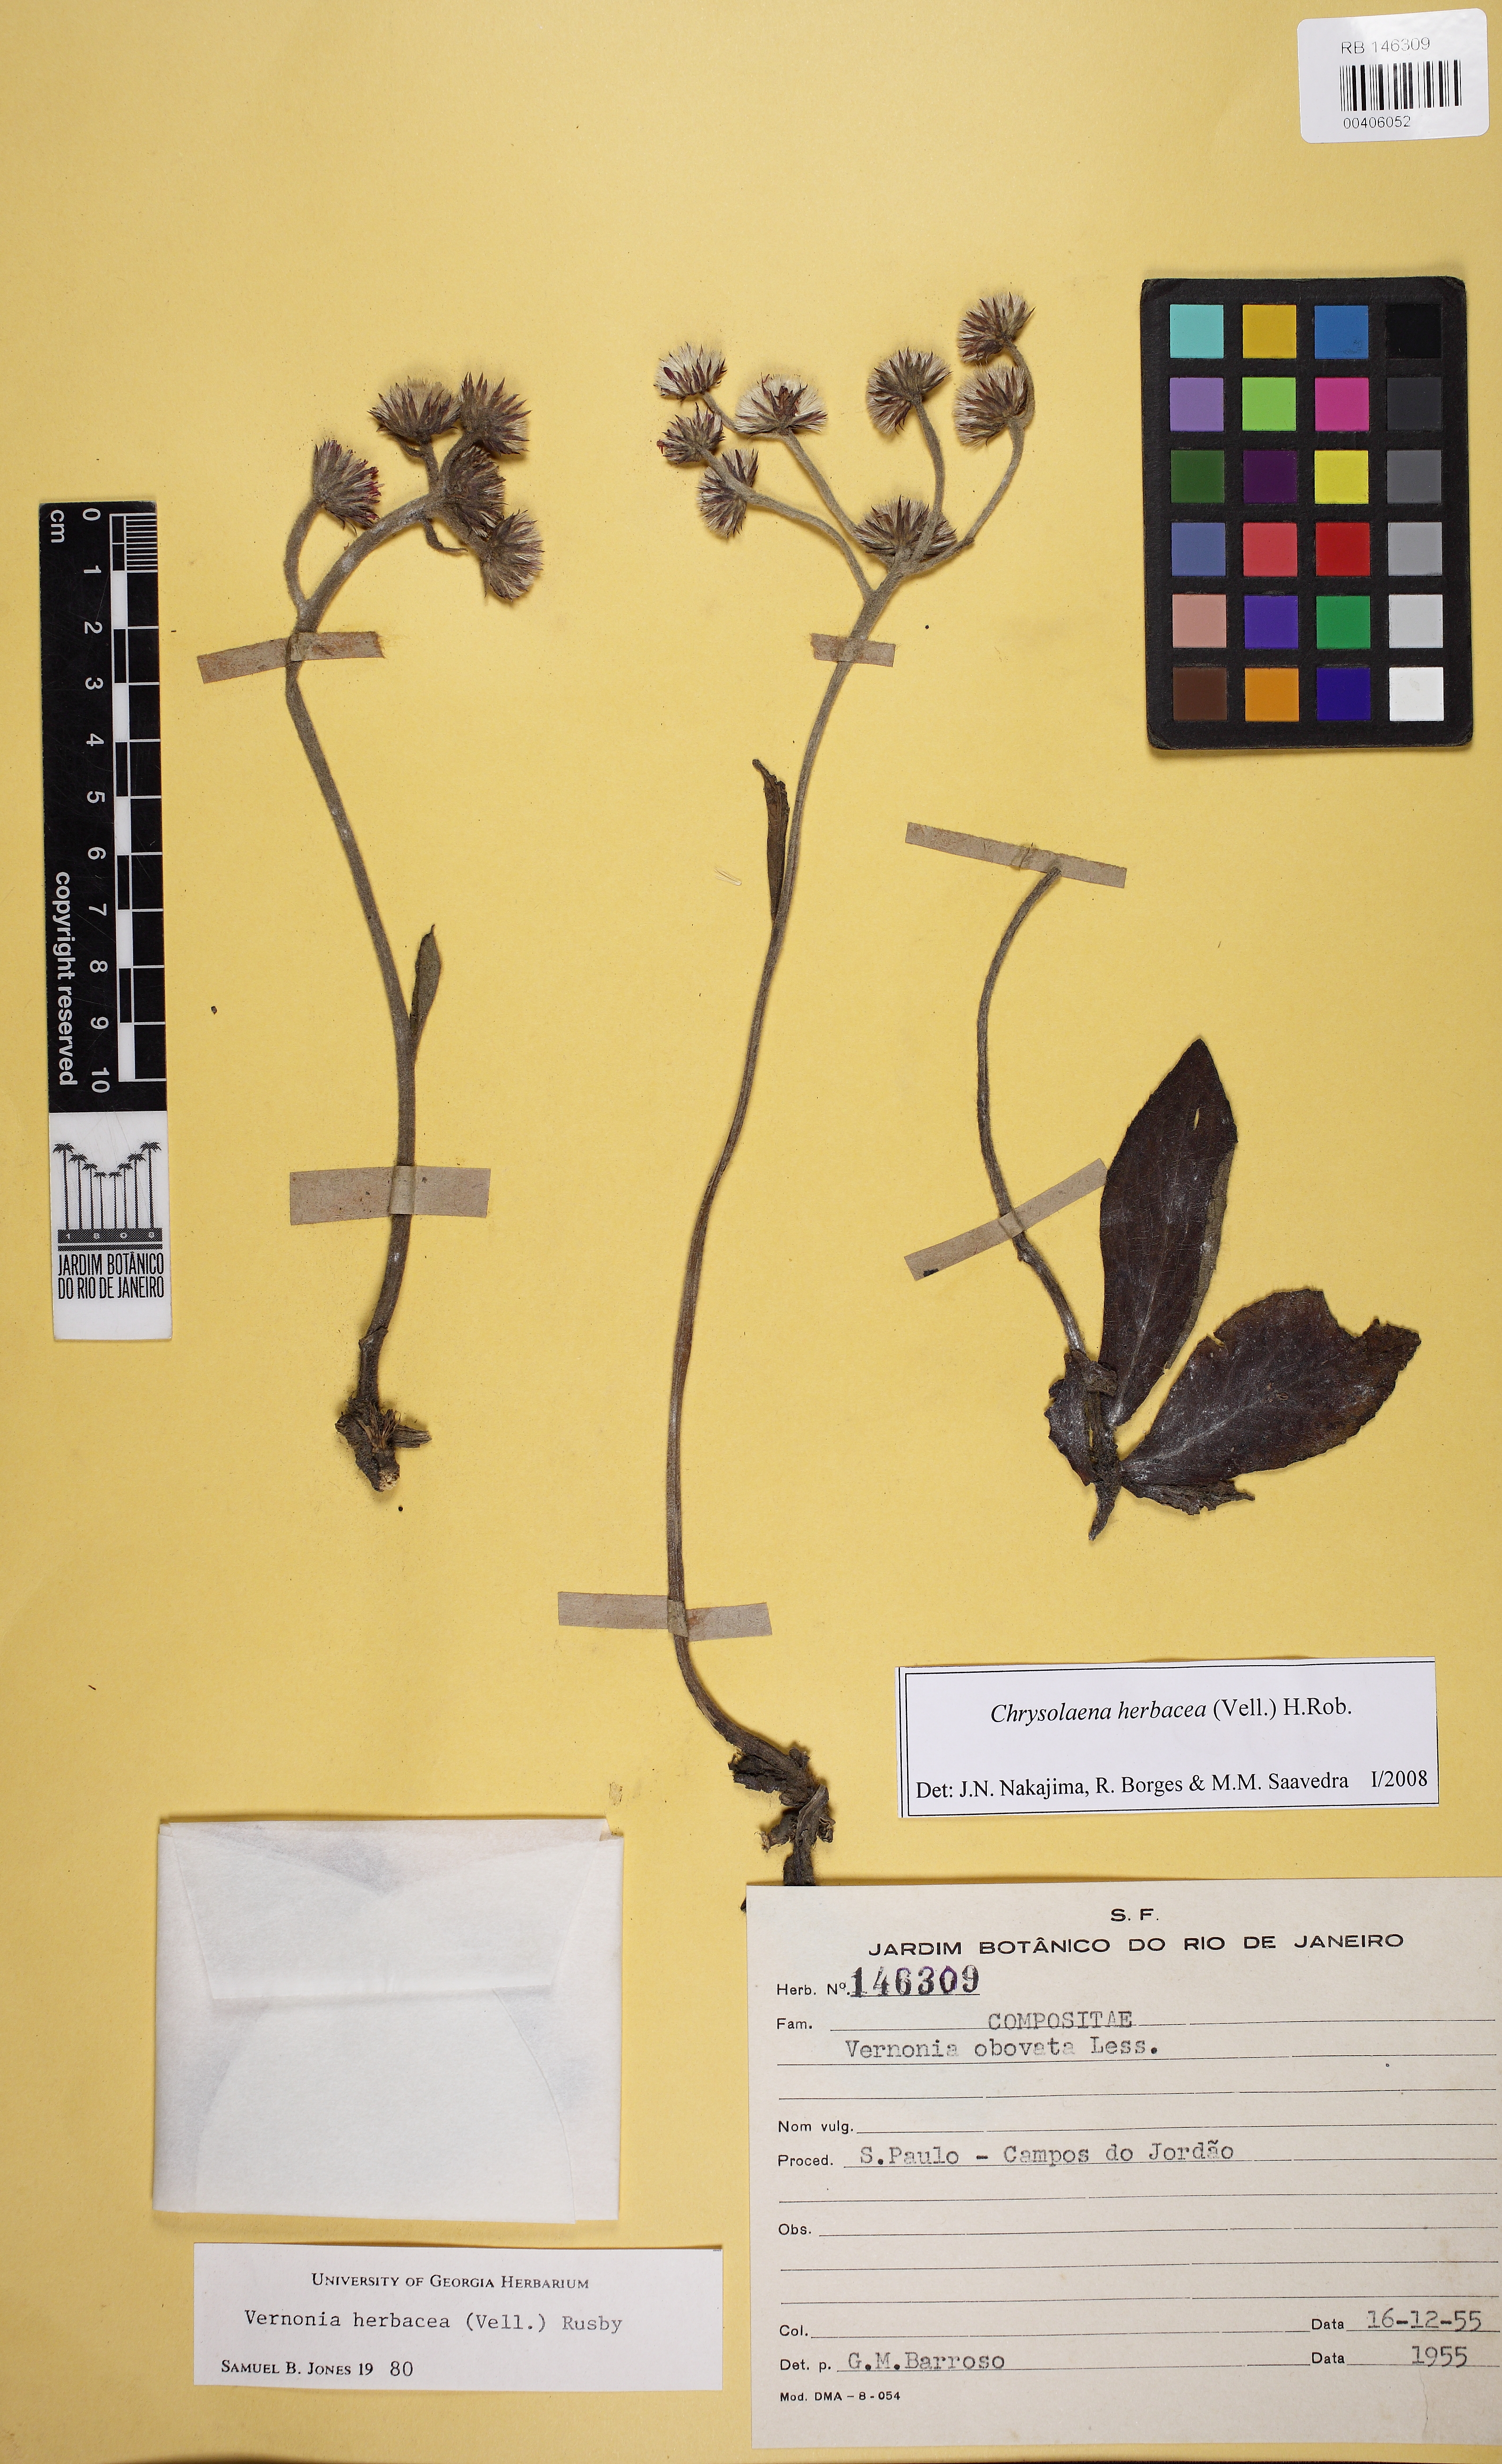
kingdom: Plantae
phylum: Tracheophyta
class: Magnoliopsida
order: Asterales
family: Asteraceae
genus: Chrysolaena
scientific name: Chrysolaena obovata
